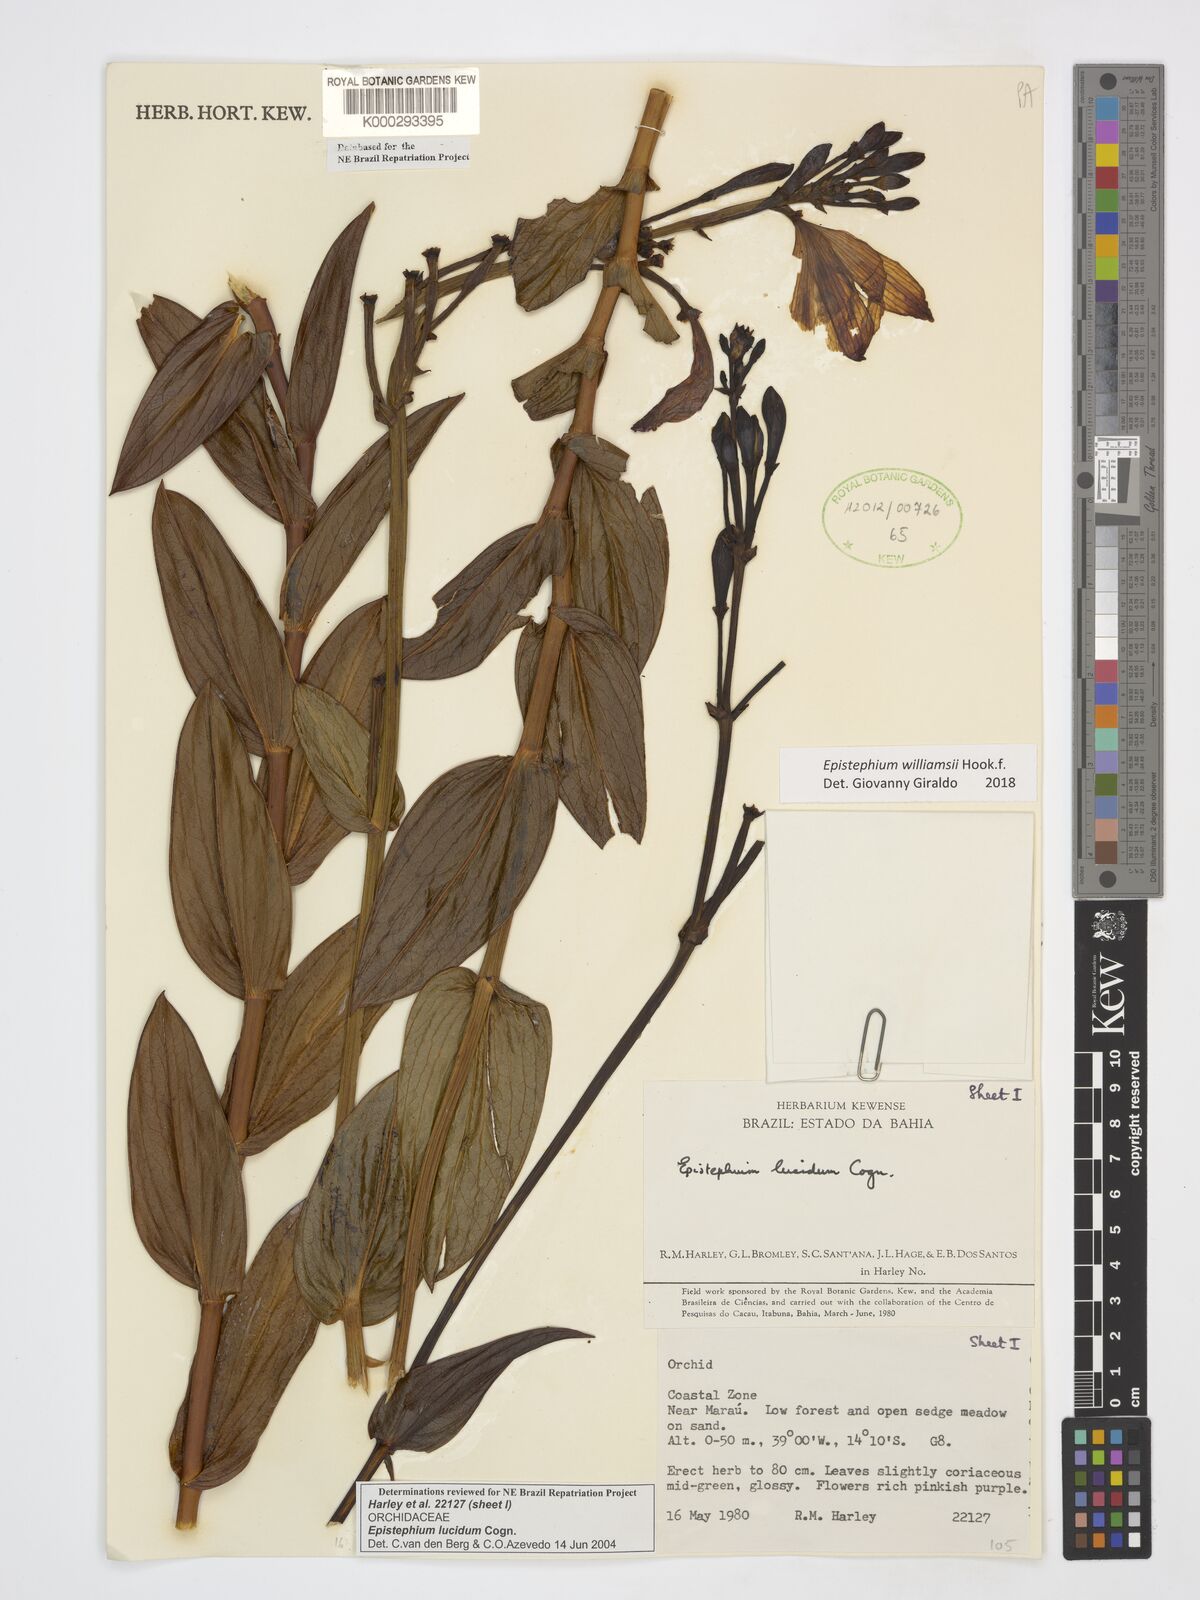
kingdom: Plantae
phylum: Tracheophyta
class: Liliopsida
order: Asparagales
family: Orchidaceae
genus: Epistephium
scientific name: Epistephium williamsii
